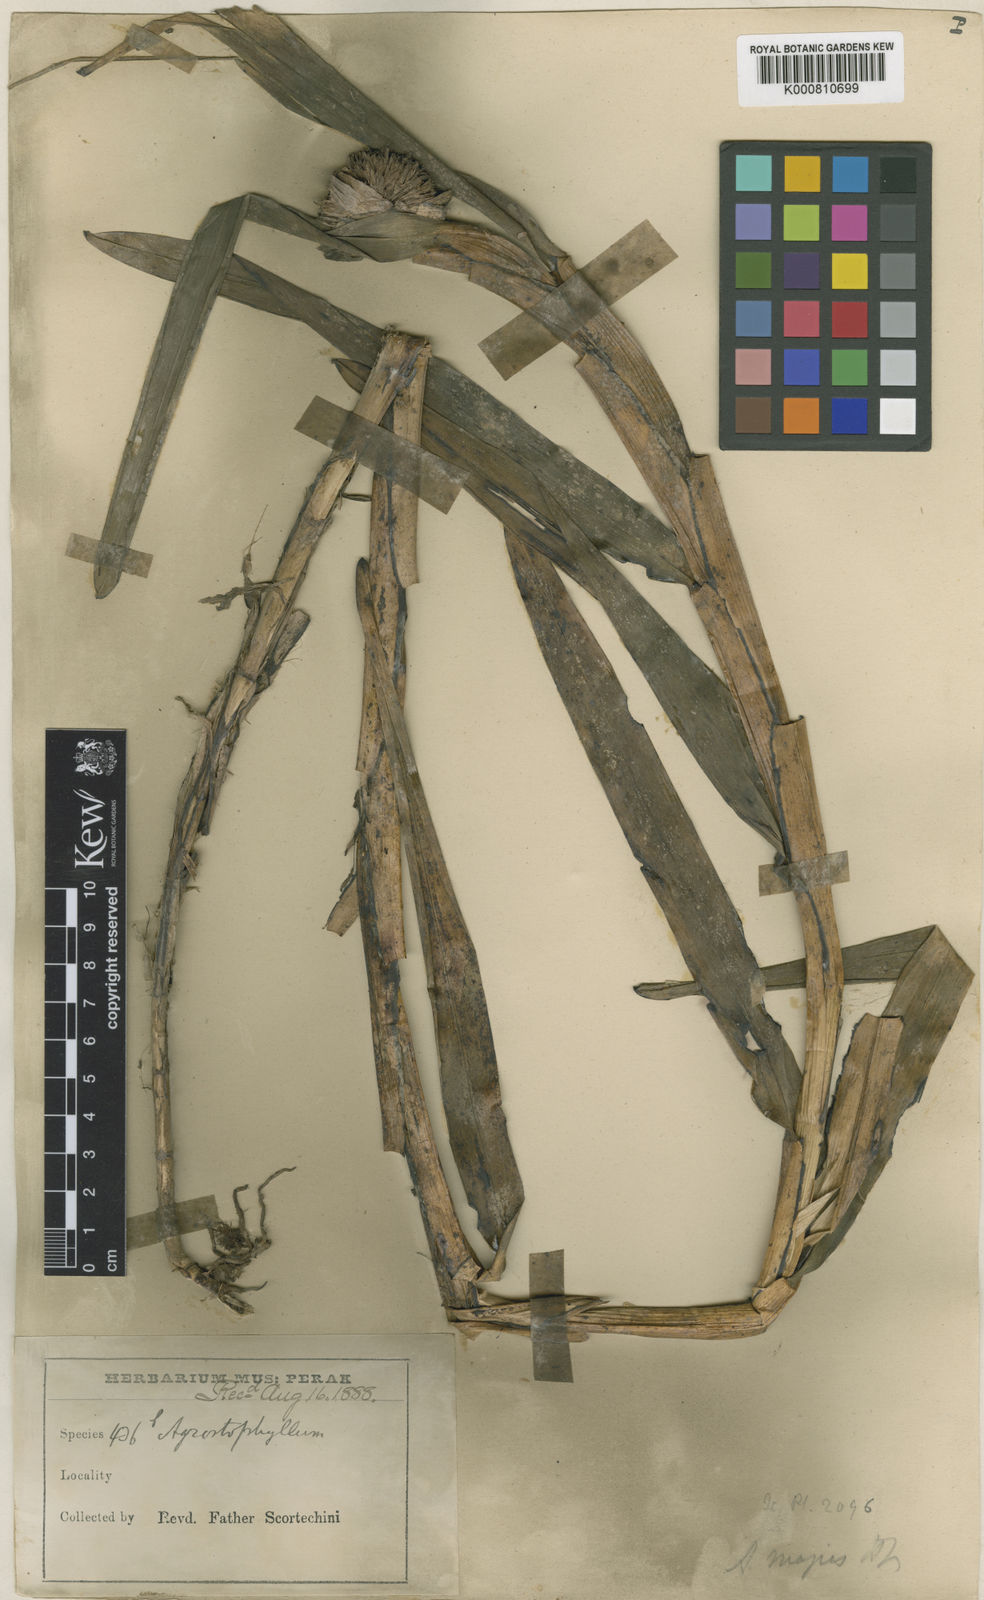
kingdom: Plantae
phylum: Tracheophyta
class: Liliopsida
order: Asparagales
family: Orchidaceae
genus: Agrostophyllum
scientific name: Agrostophyllum majus
